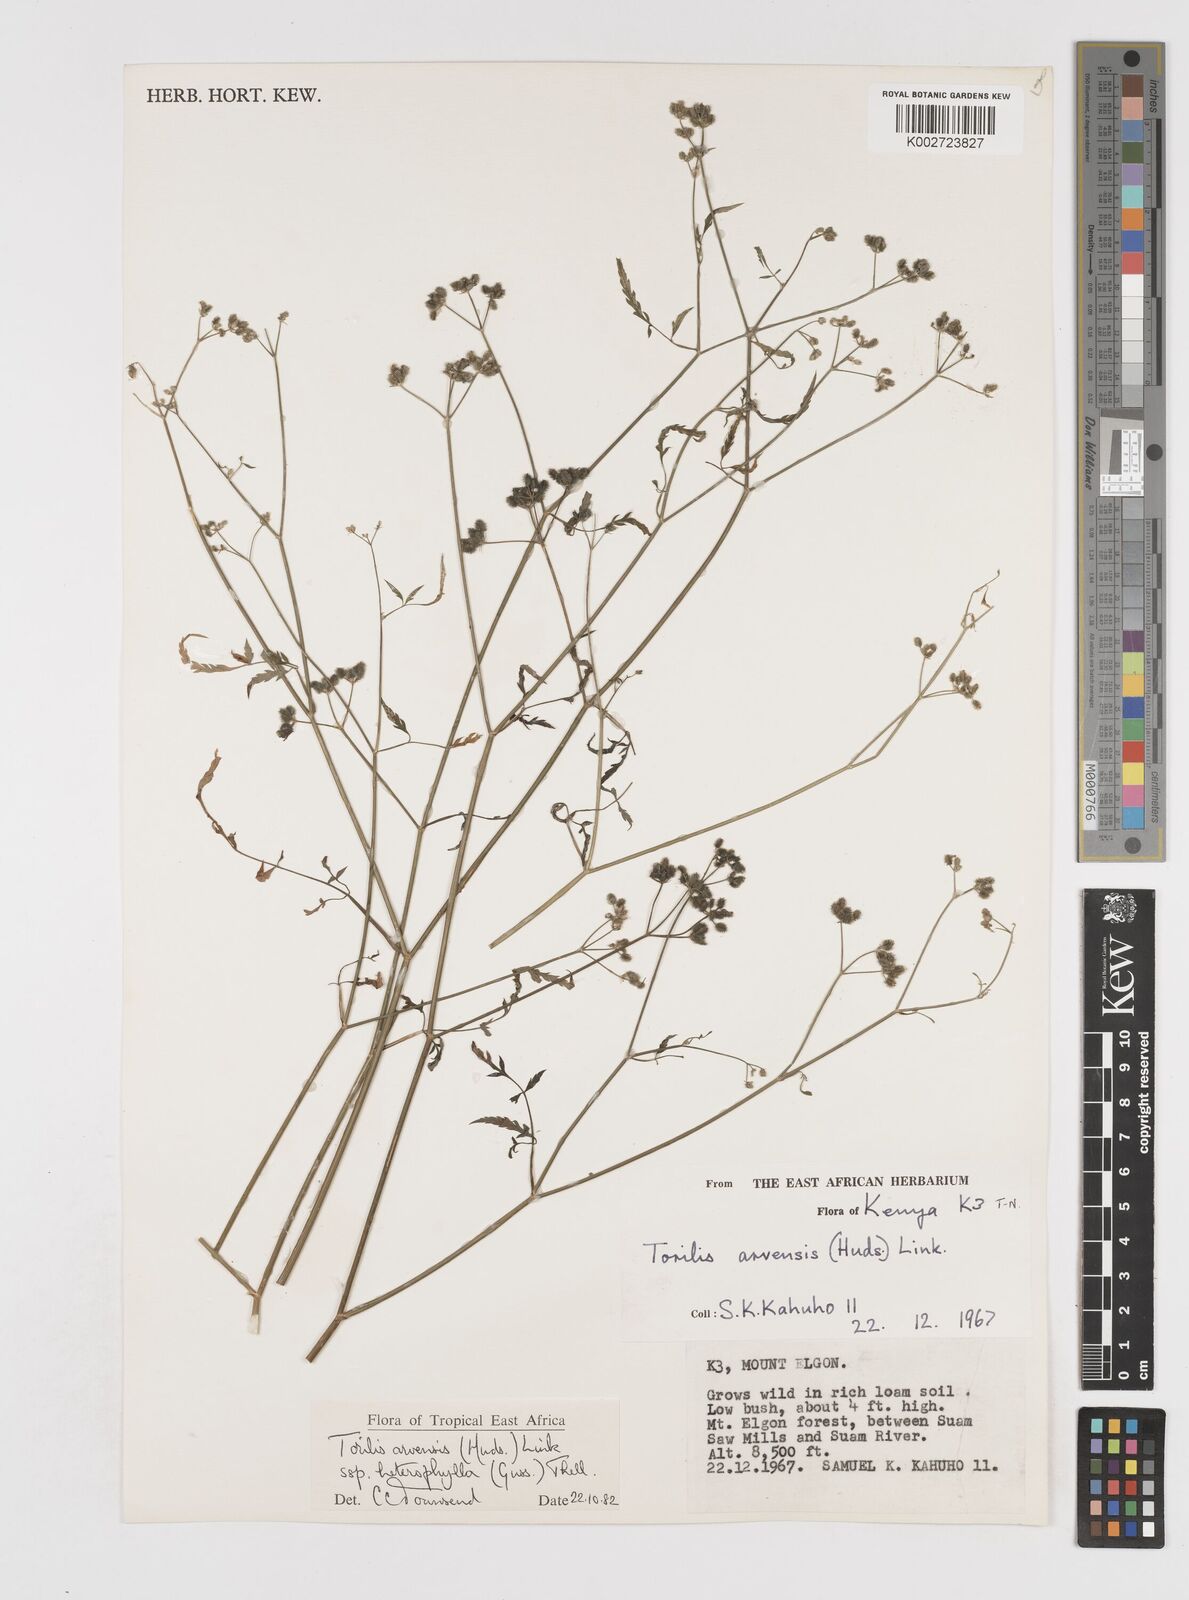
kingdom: Plantae
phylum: Tracheophyta
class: Magnoliopsida
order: Apiales
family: Apiaceae
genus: Torilis
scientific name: Torilis arvensis
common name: Spreading hedge-parsley
